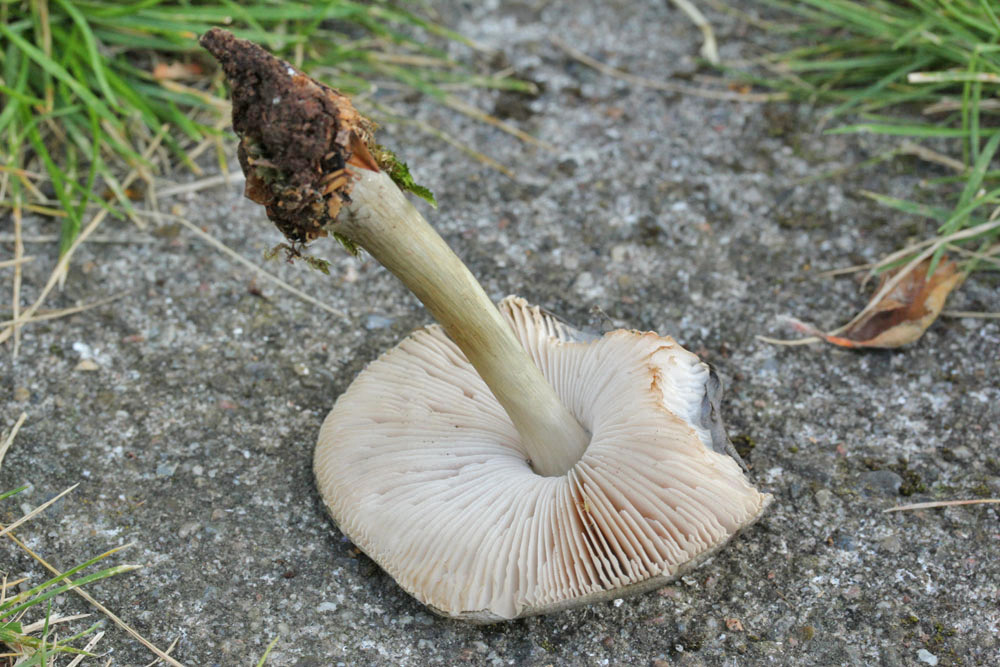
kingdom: Fungi
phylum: Basidiomycota
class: Agaricomycetes
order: Agaricales
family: Pluteaceae
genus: Pluteus
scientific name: Pluteus salicinus
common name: stiv skærmhat
